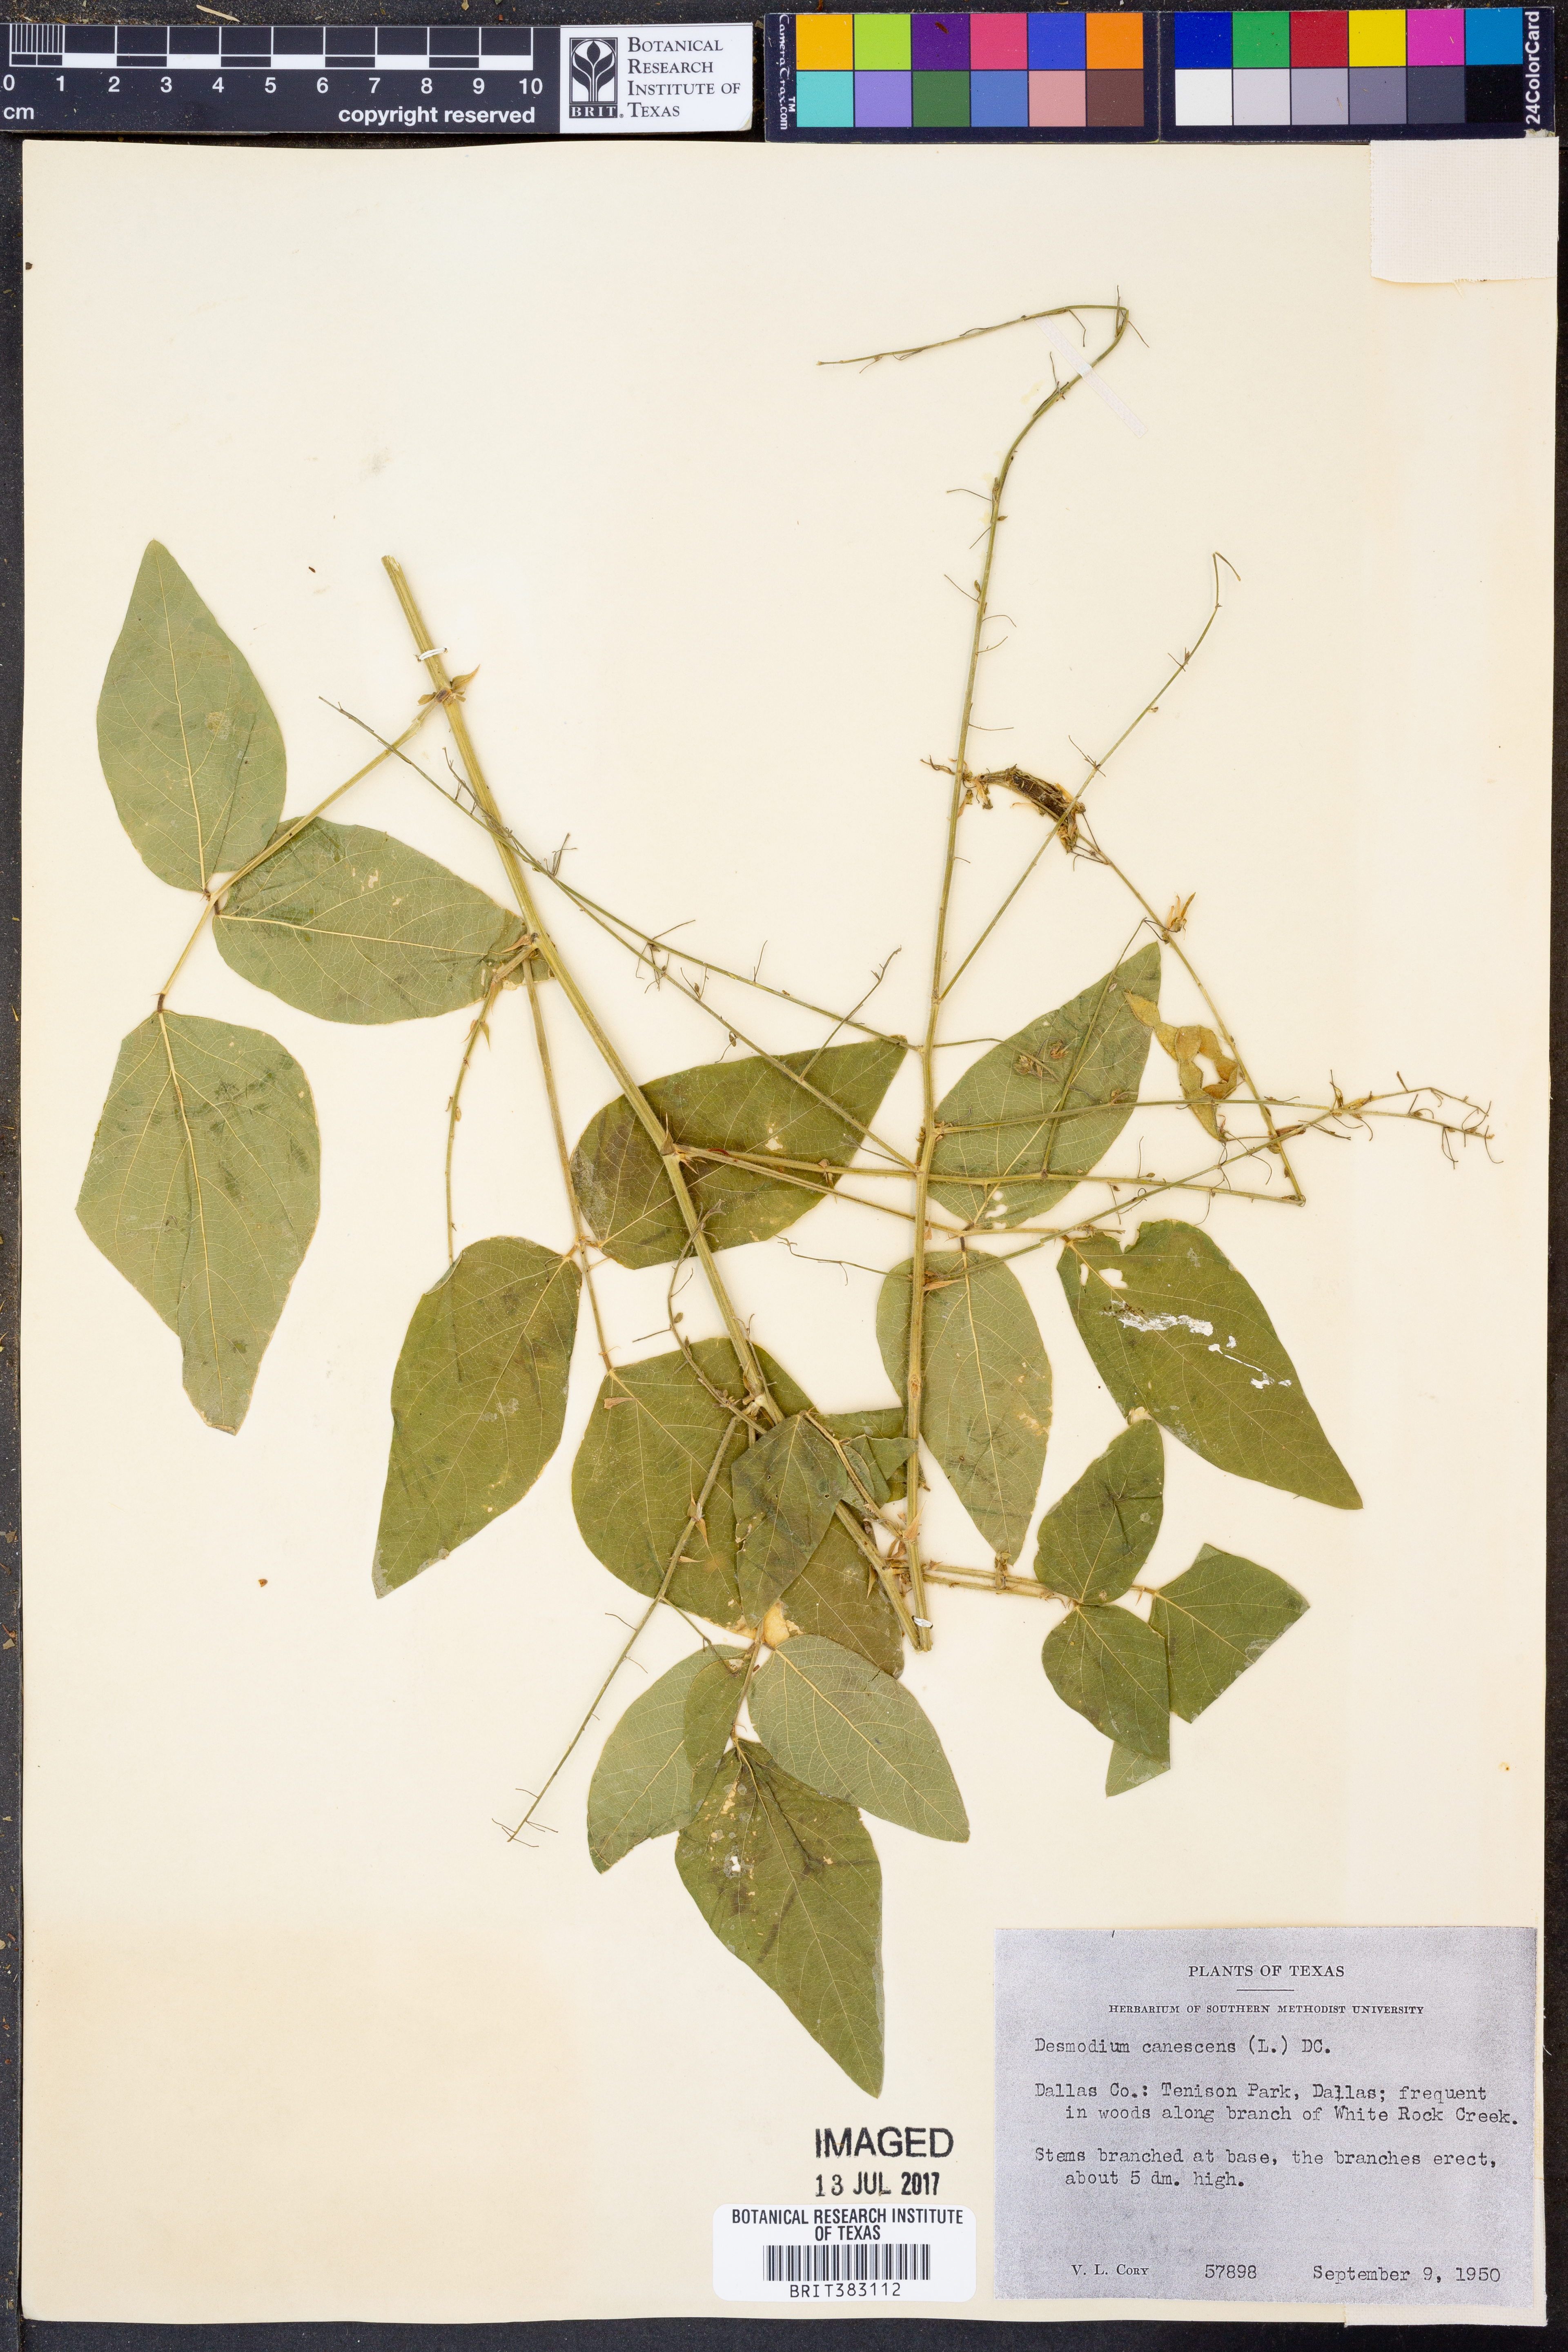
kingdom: Plantae
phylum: Tracheophyta
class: Magnoliopsida
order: Fabales
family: Fabaceae
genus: Desmodium
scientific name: Desmodium canescens
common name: Hoary tick-clover
